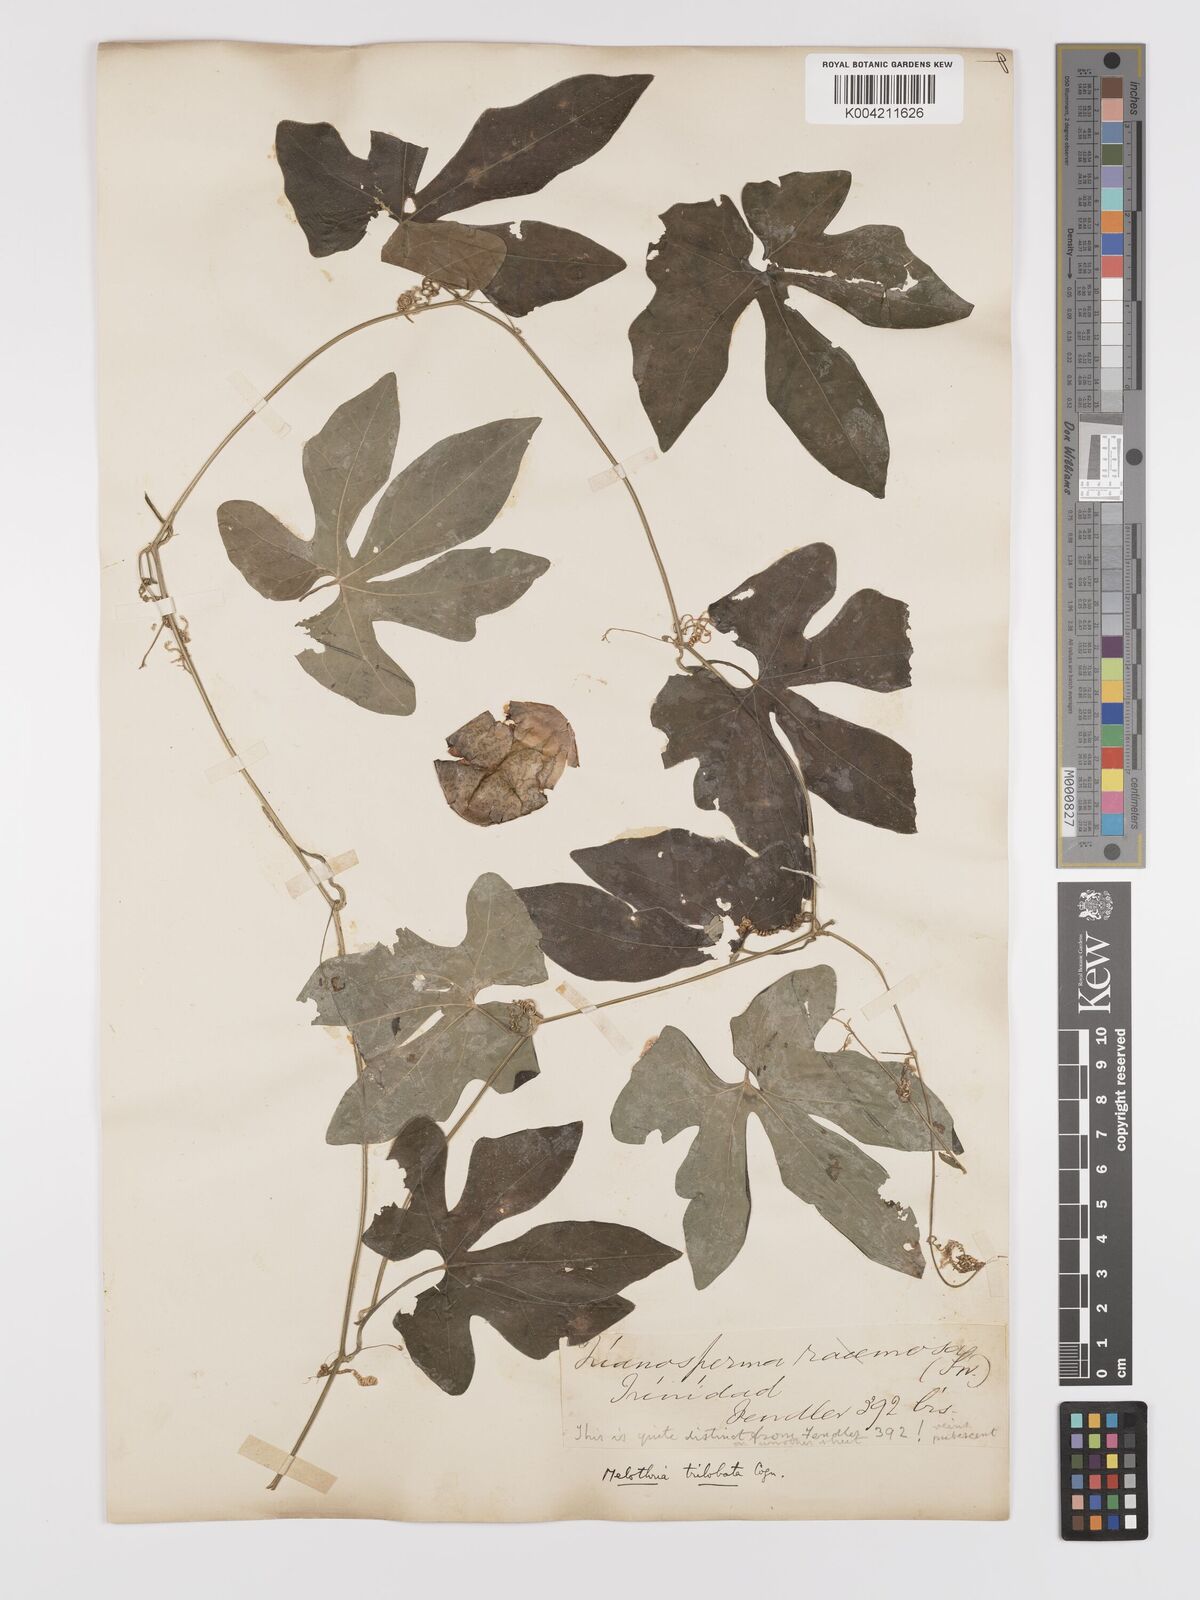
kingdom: Plantae
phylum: Tracheophyta
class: Magnoliopsida
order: Cucurbitales
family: Cucurbitaceae
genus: Melothria
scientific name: Melothria trilobata
